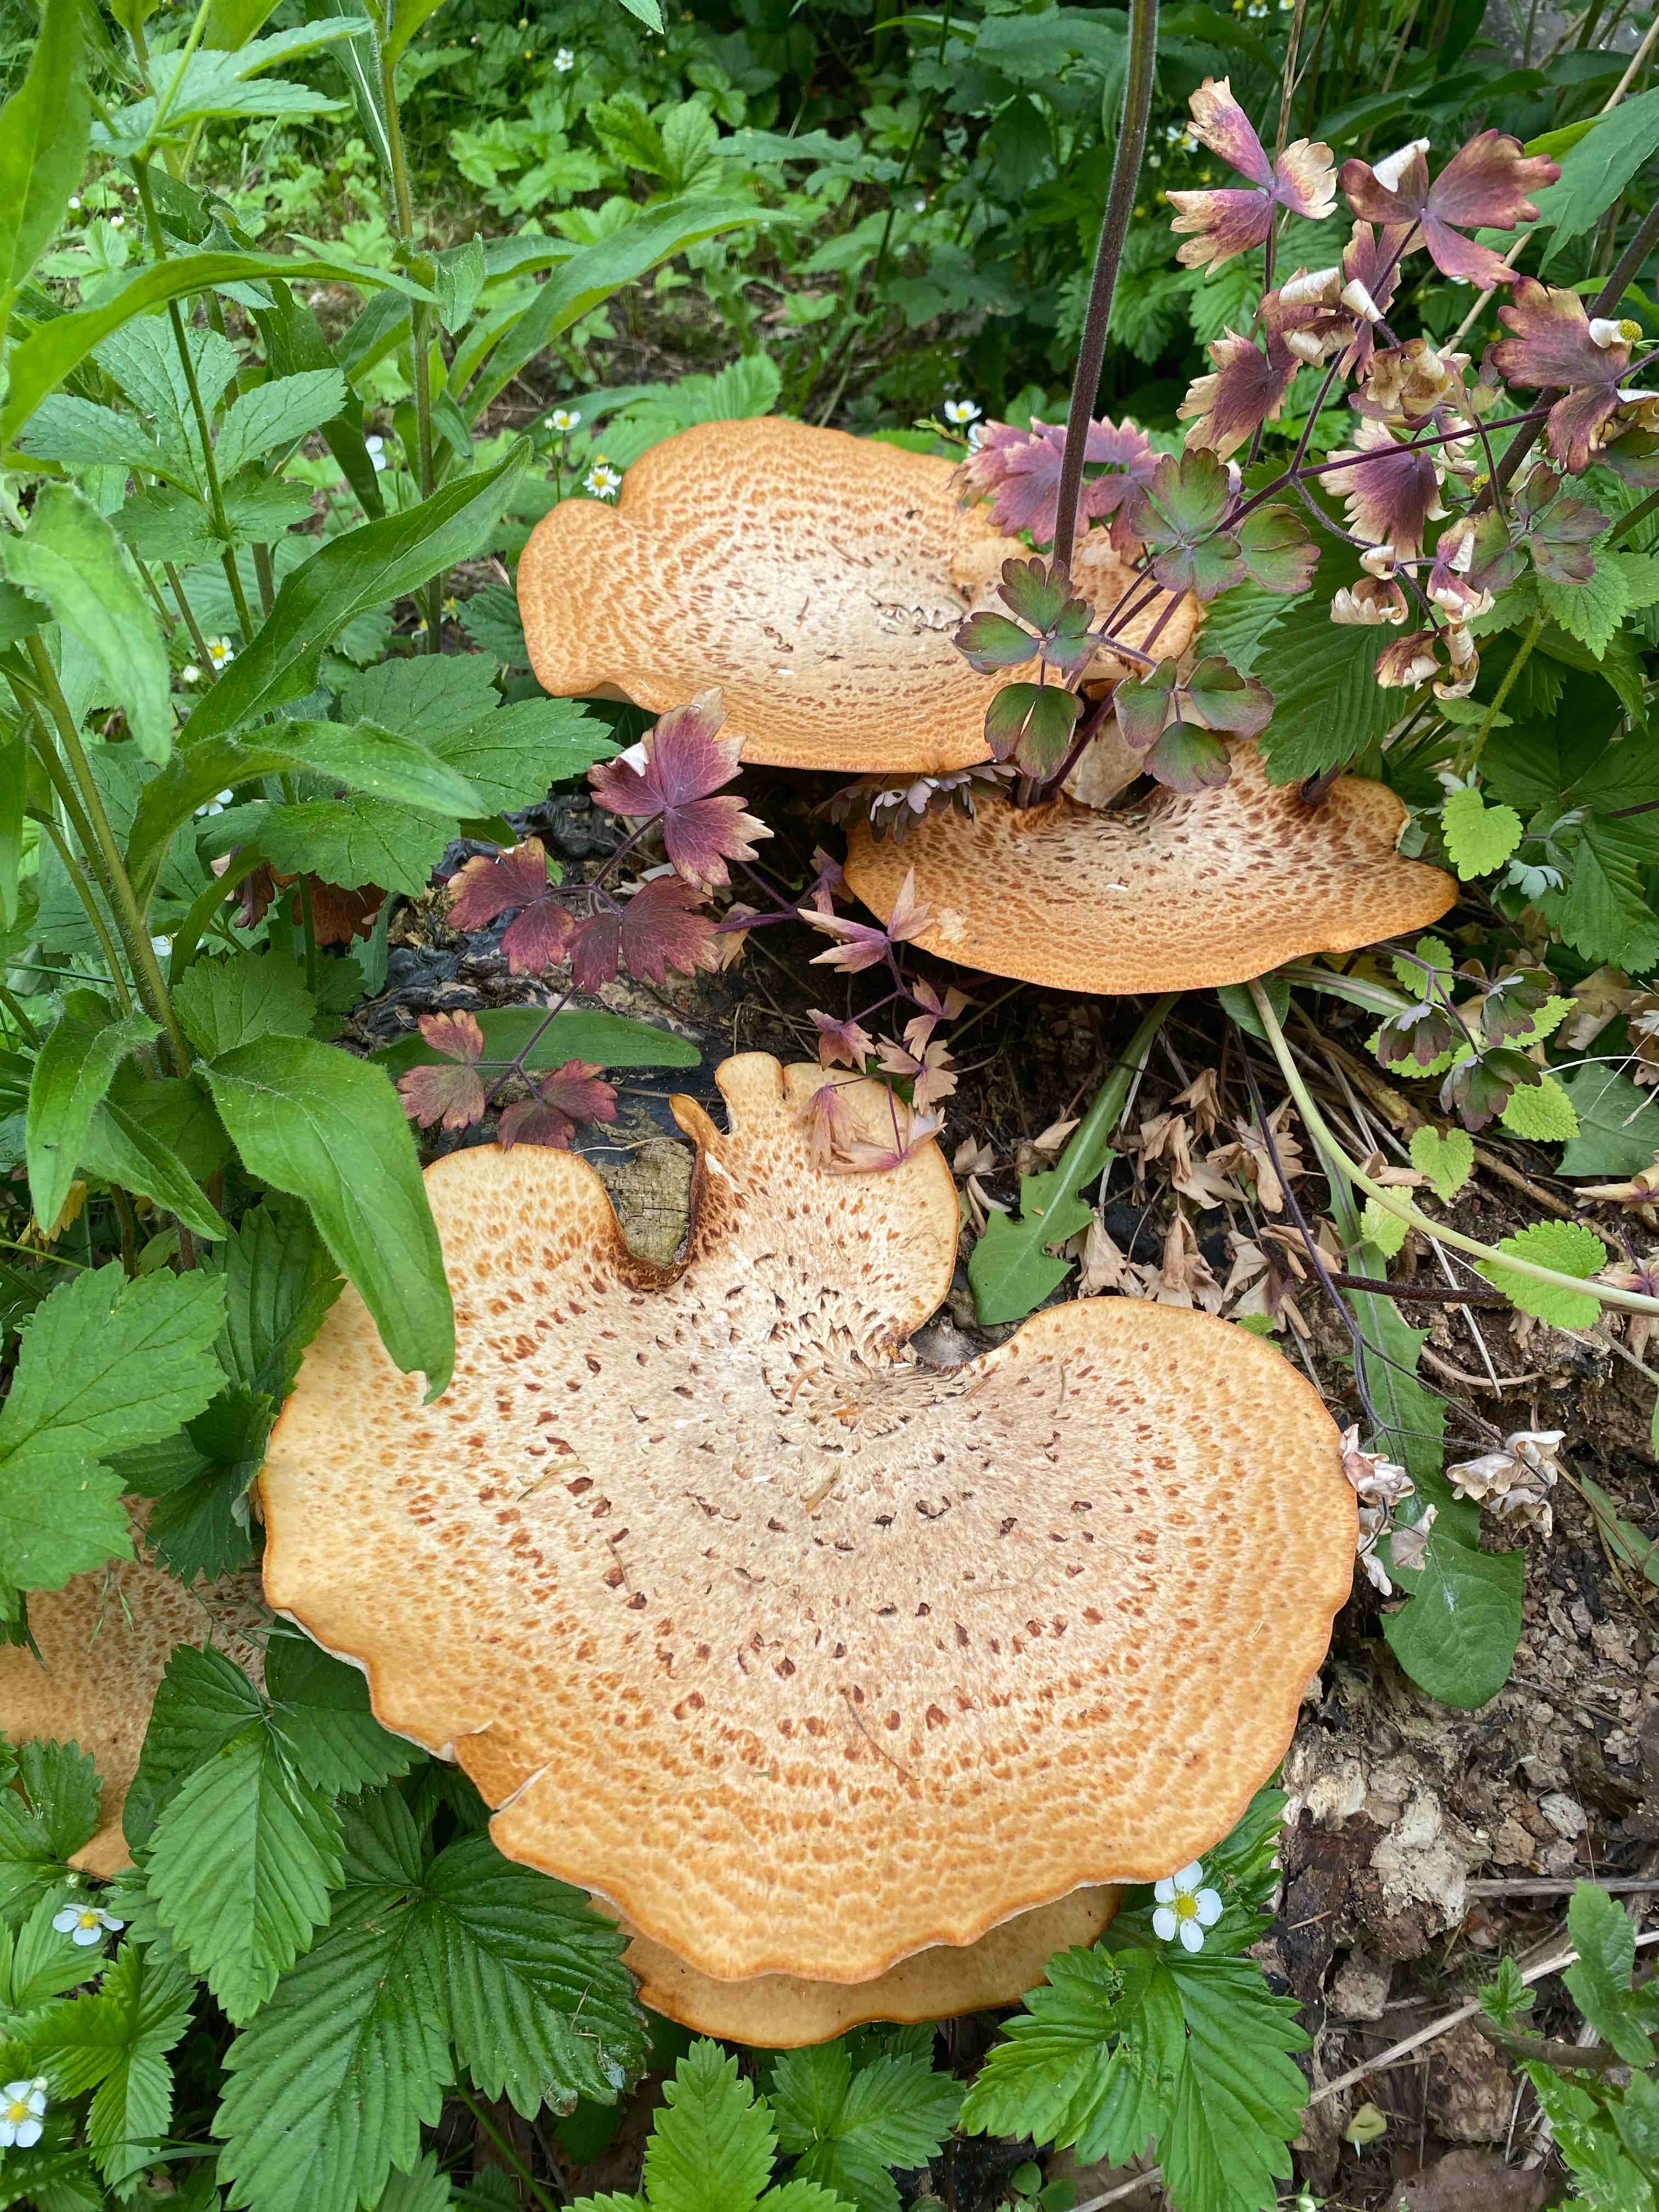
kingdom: Fungi
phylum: Basidiomycota
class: Agaricomycetes
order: Polyporales
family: Polyporaceae
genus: Cerioporus
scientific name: Cerioporus squamosus
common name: skællet stilkporesvamp
